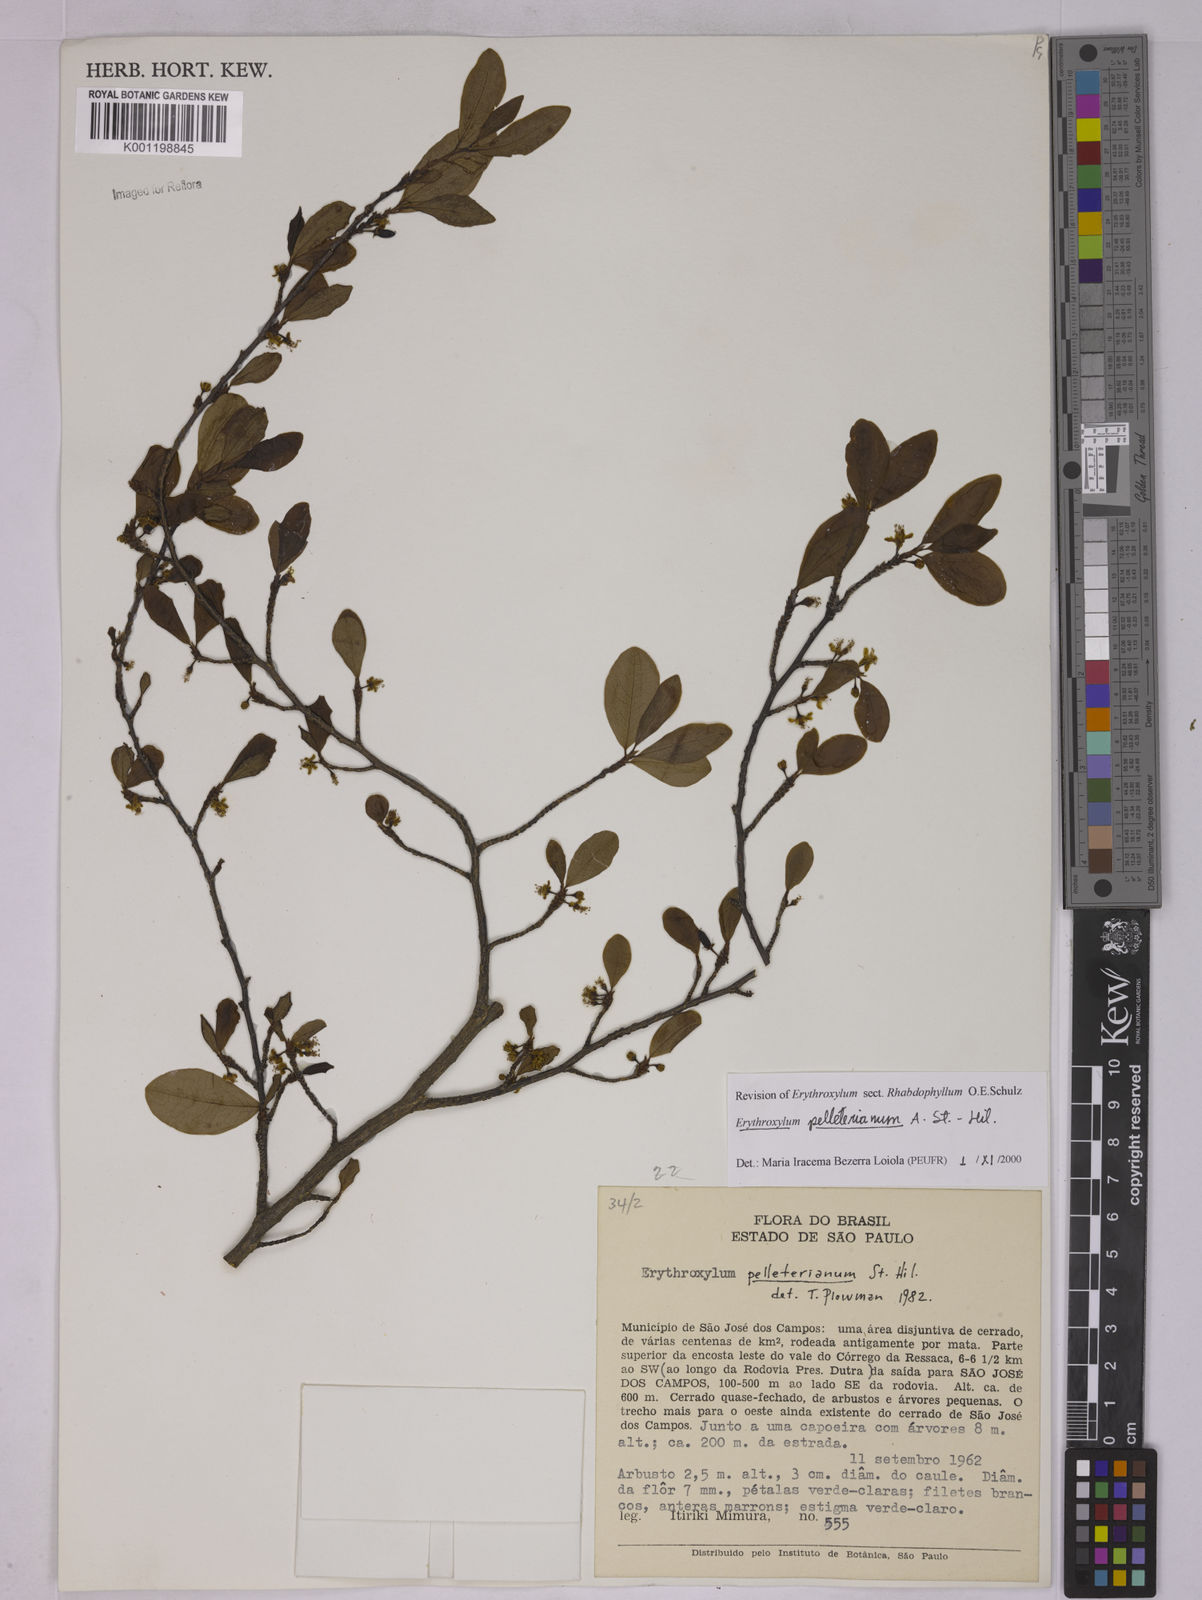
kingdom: Plantae
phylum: Tracheophyta
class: Magnoliopsida
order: Malpighiales
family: Erythroxylaceae
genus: Erythroxylum
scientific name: Erythroxylum pelleterianum
